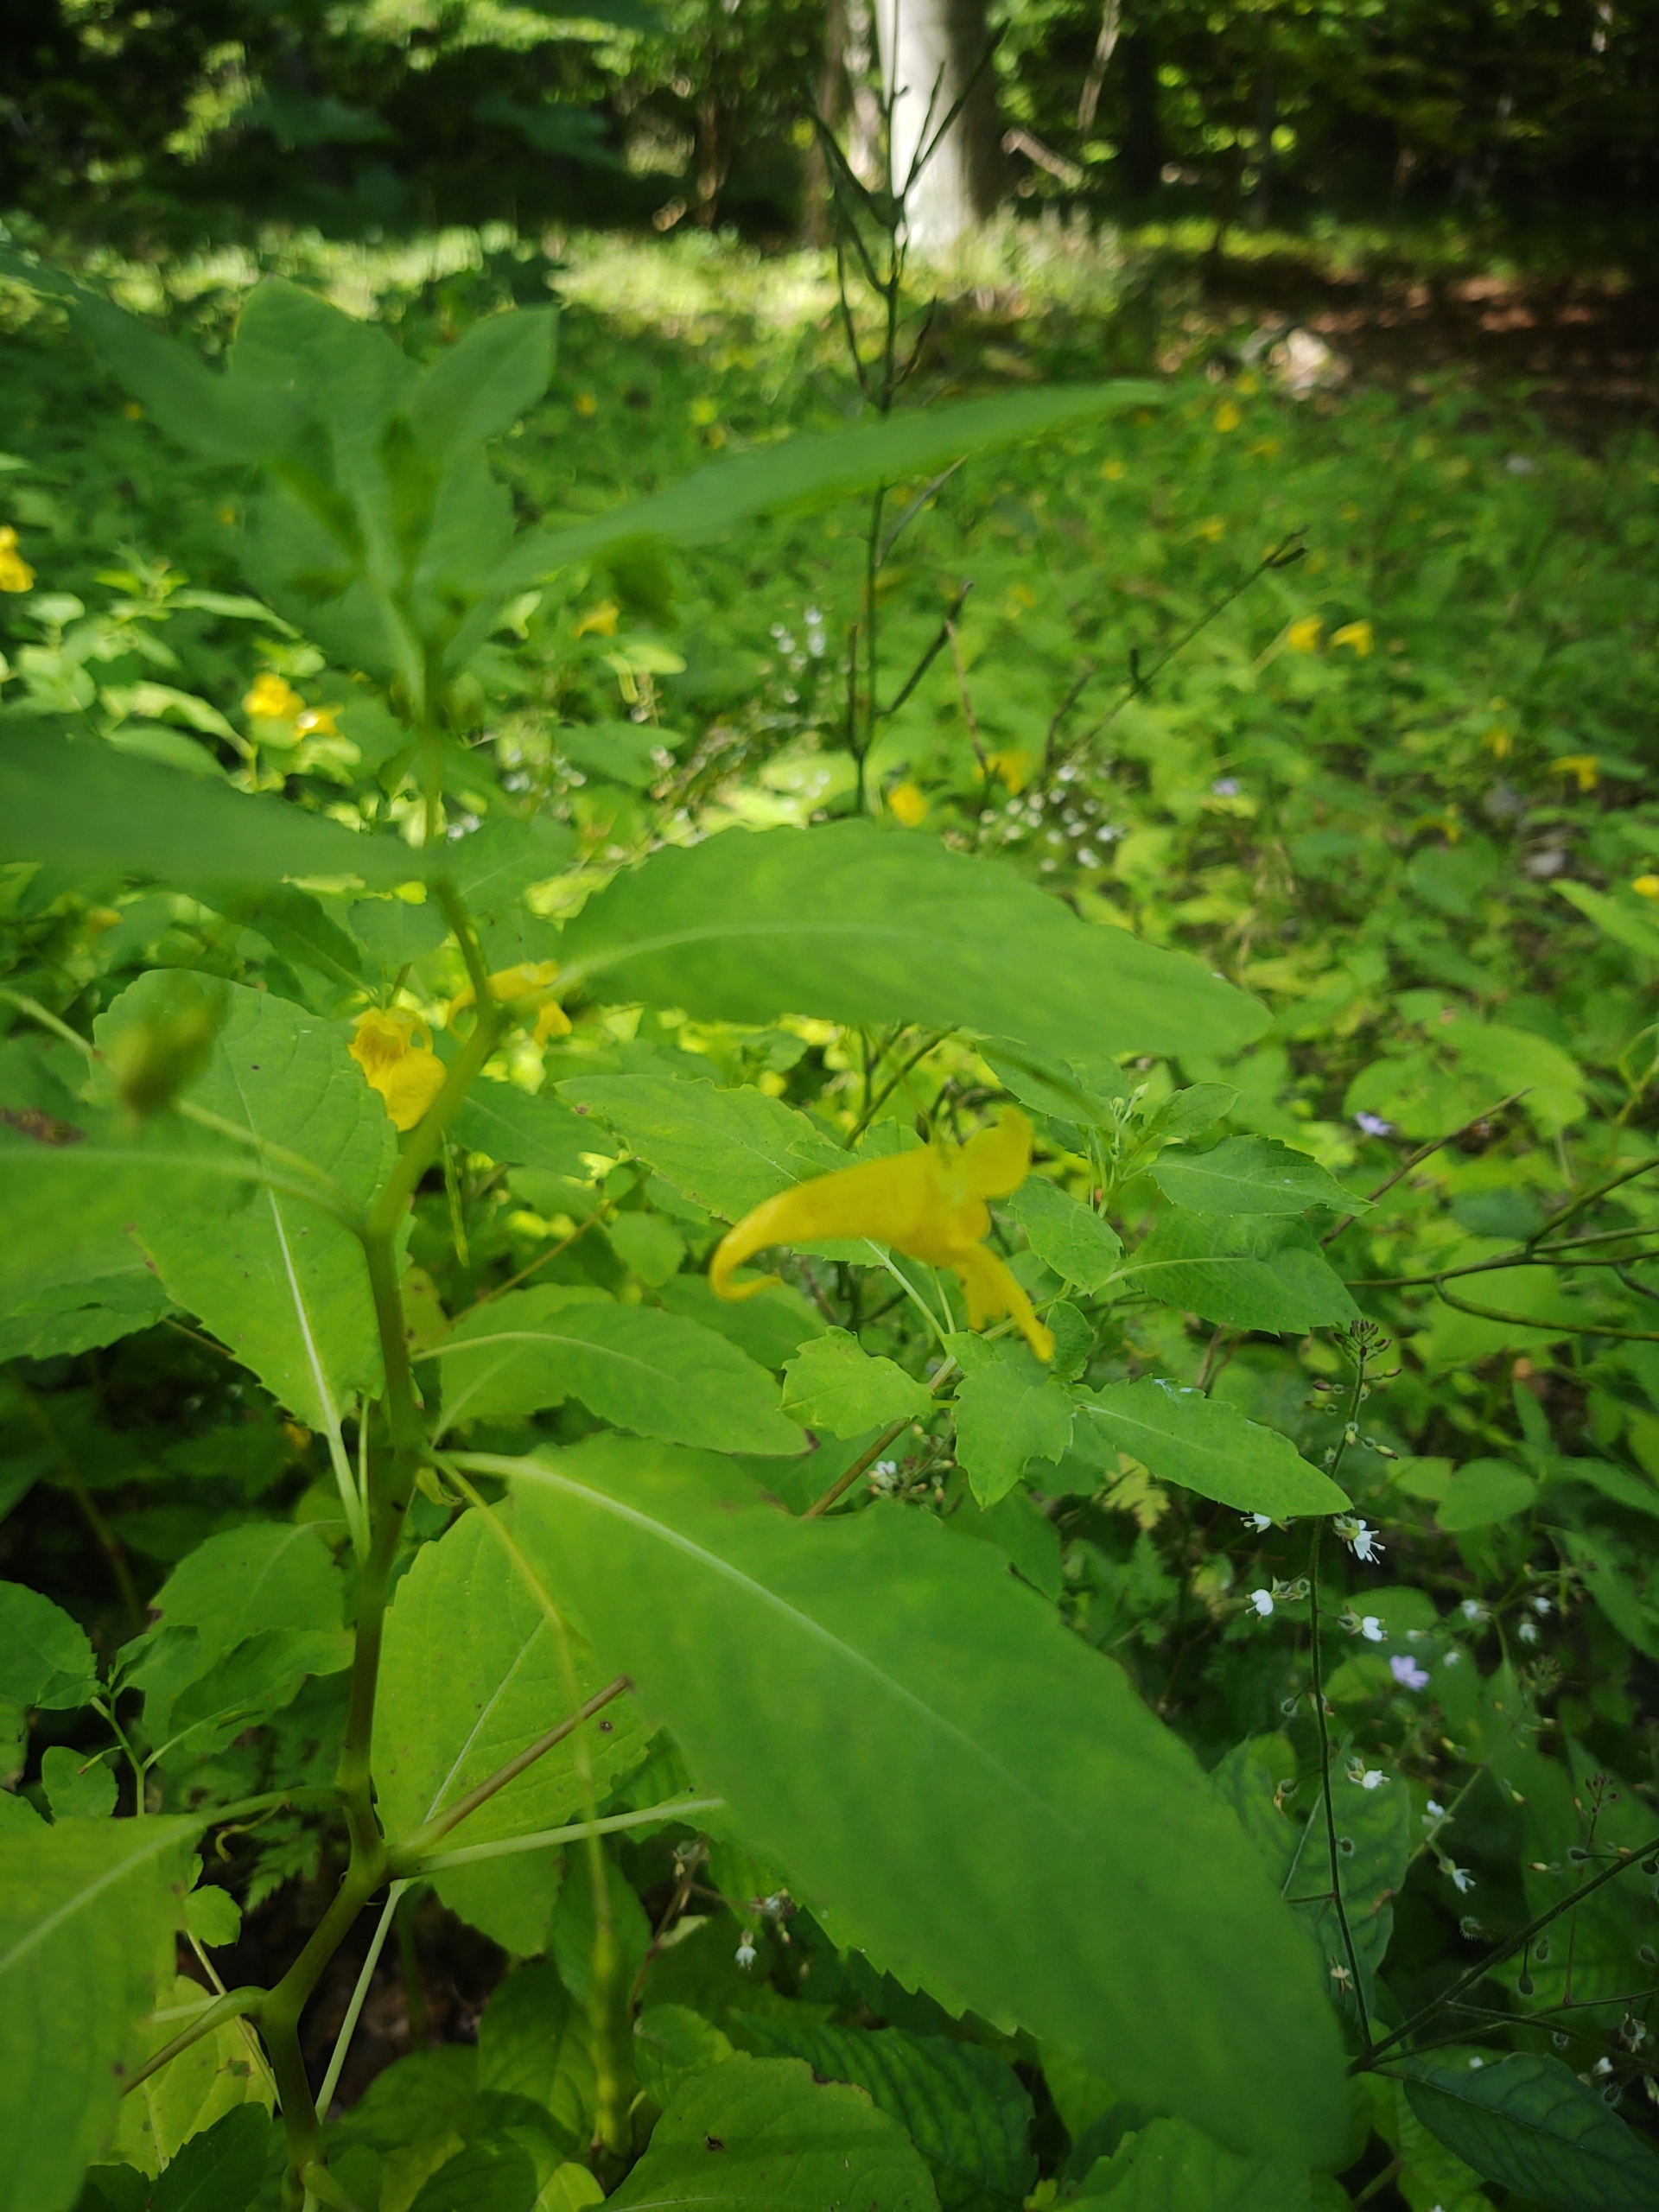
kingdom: Plantae
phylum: Tracheophyta
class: Magnoliopsida
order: Ericales
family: Balsaminaceae
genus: Impatiens
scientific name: Impatiens noli-tangere
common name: Spring-balsamin
